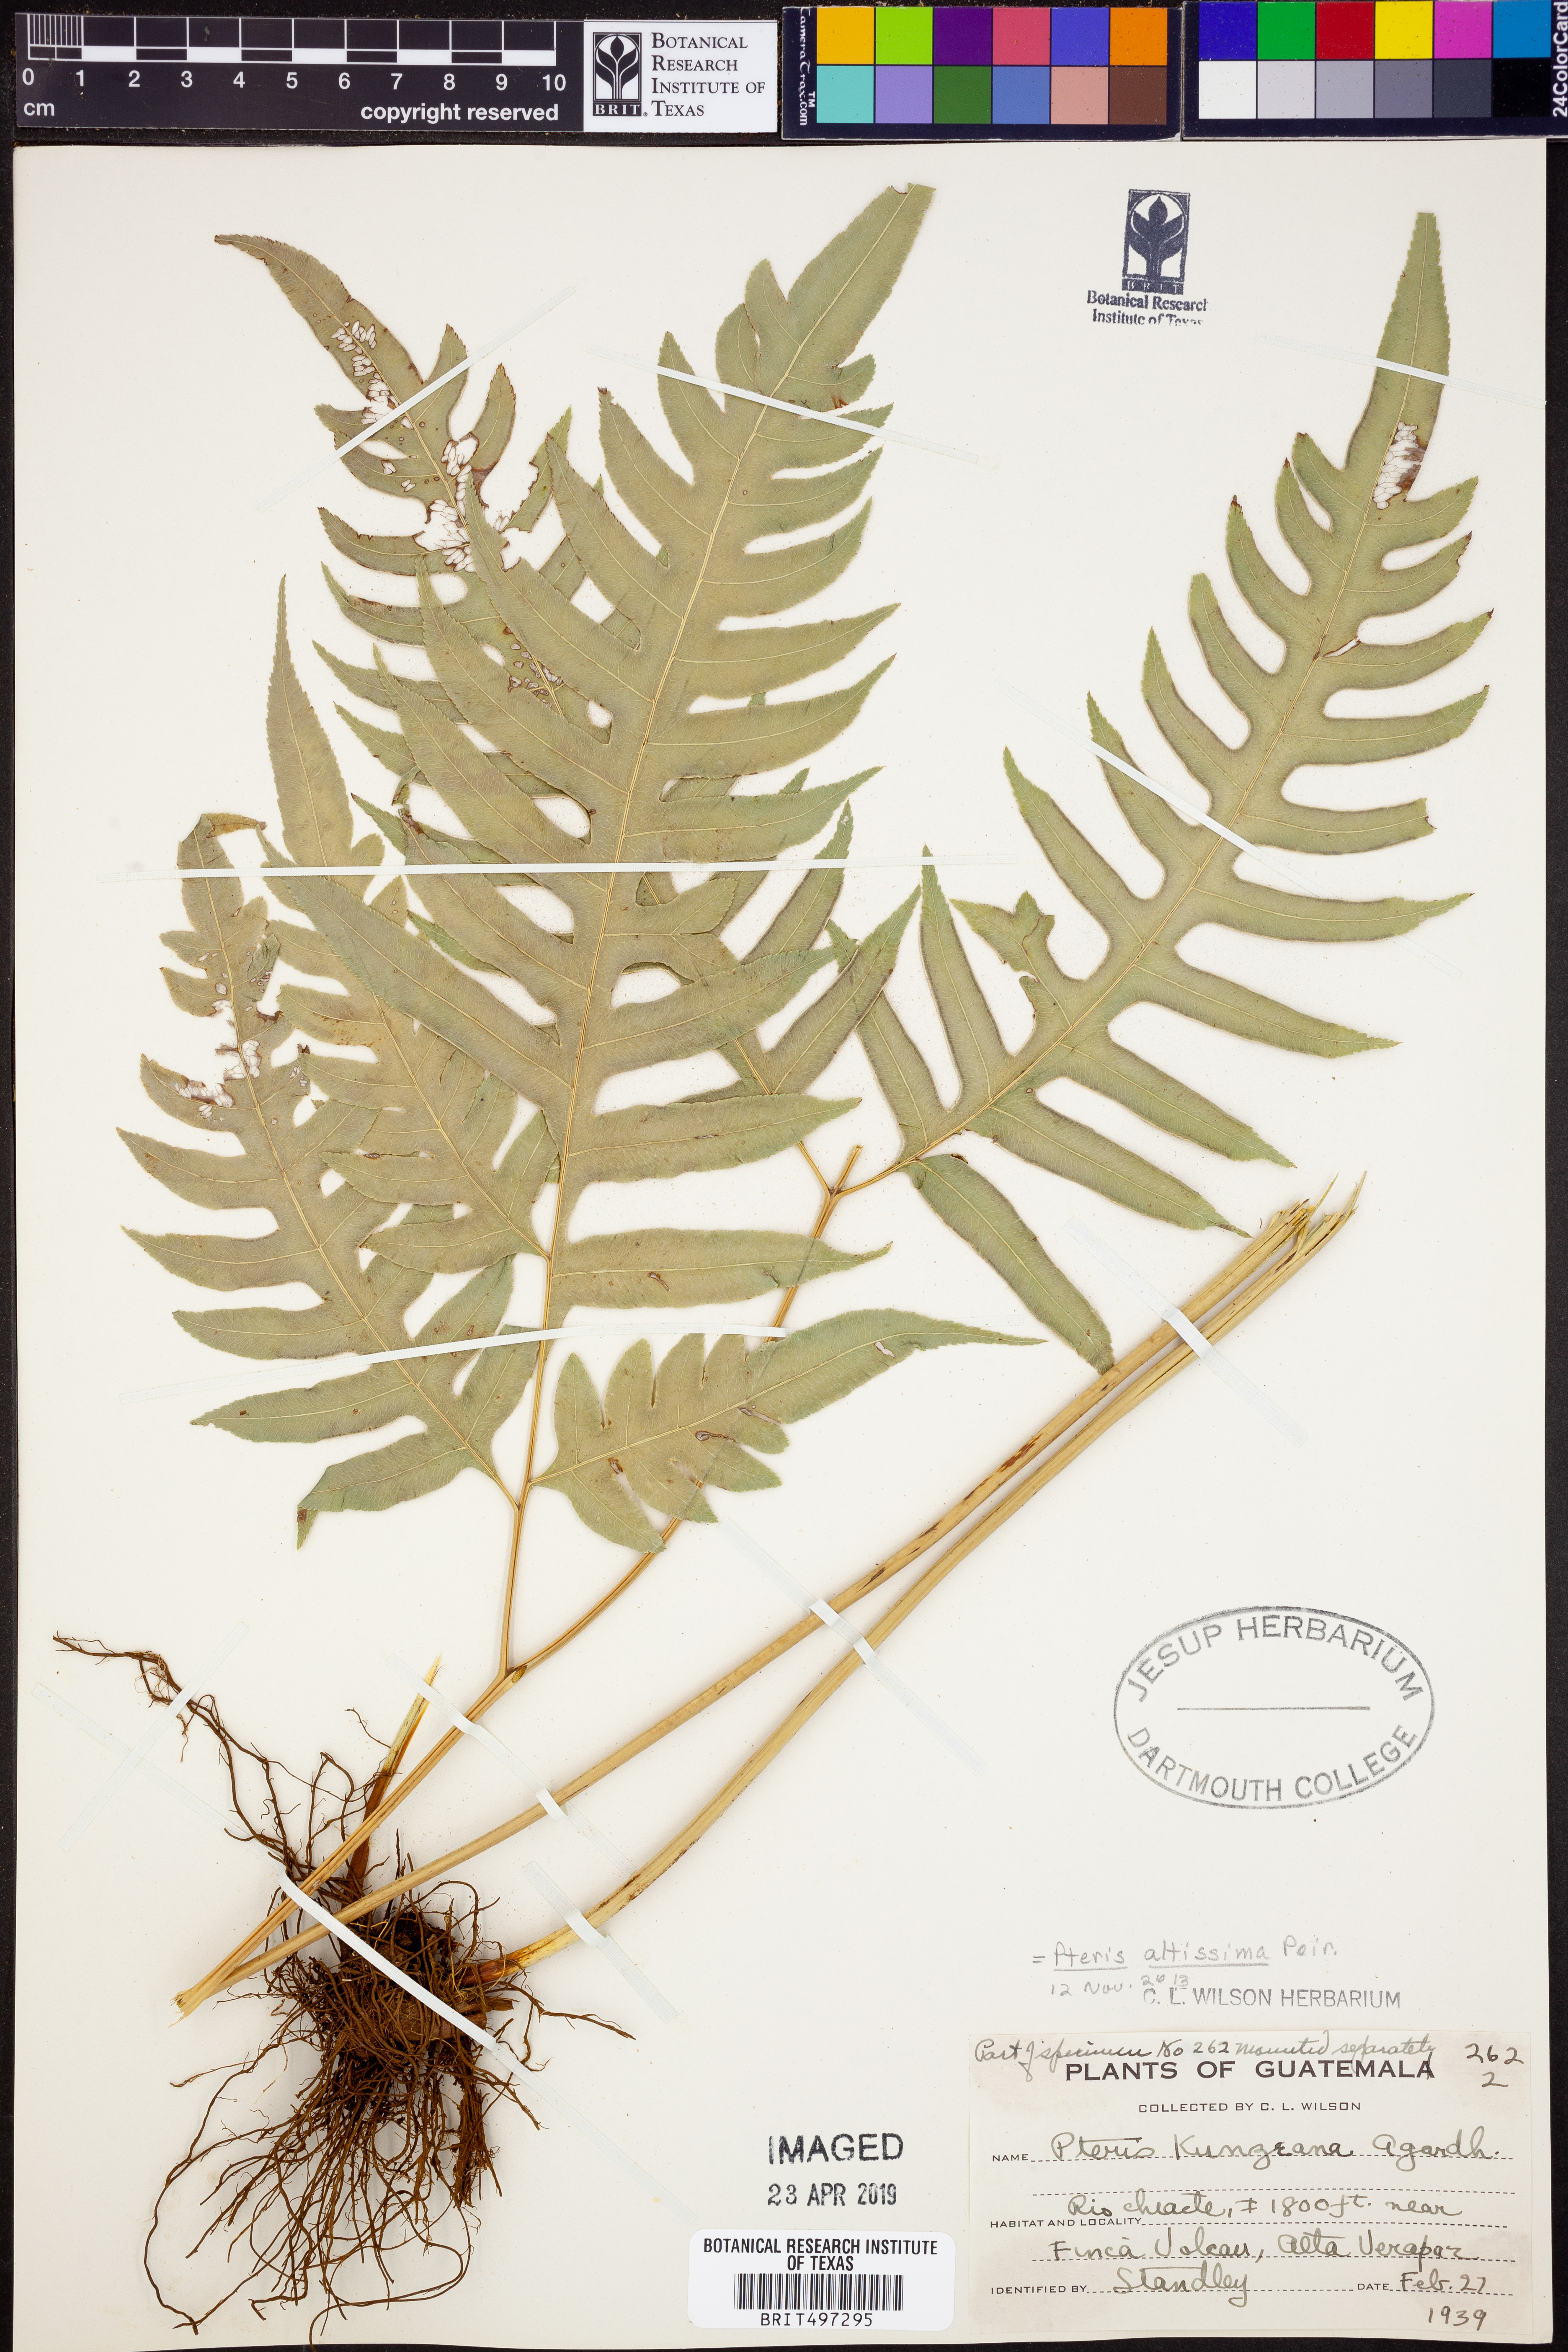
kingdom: Plantae
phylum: Tracheophyta
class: Polypodiopsida
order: Polypodiales
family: Pteridaceae
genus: Pteris
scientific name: Pteris altissima
